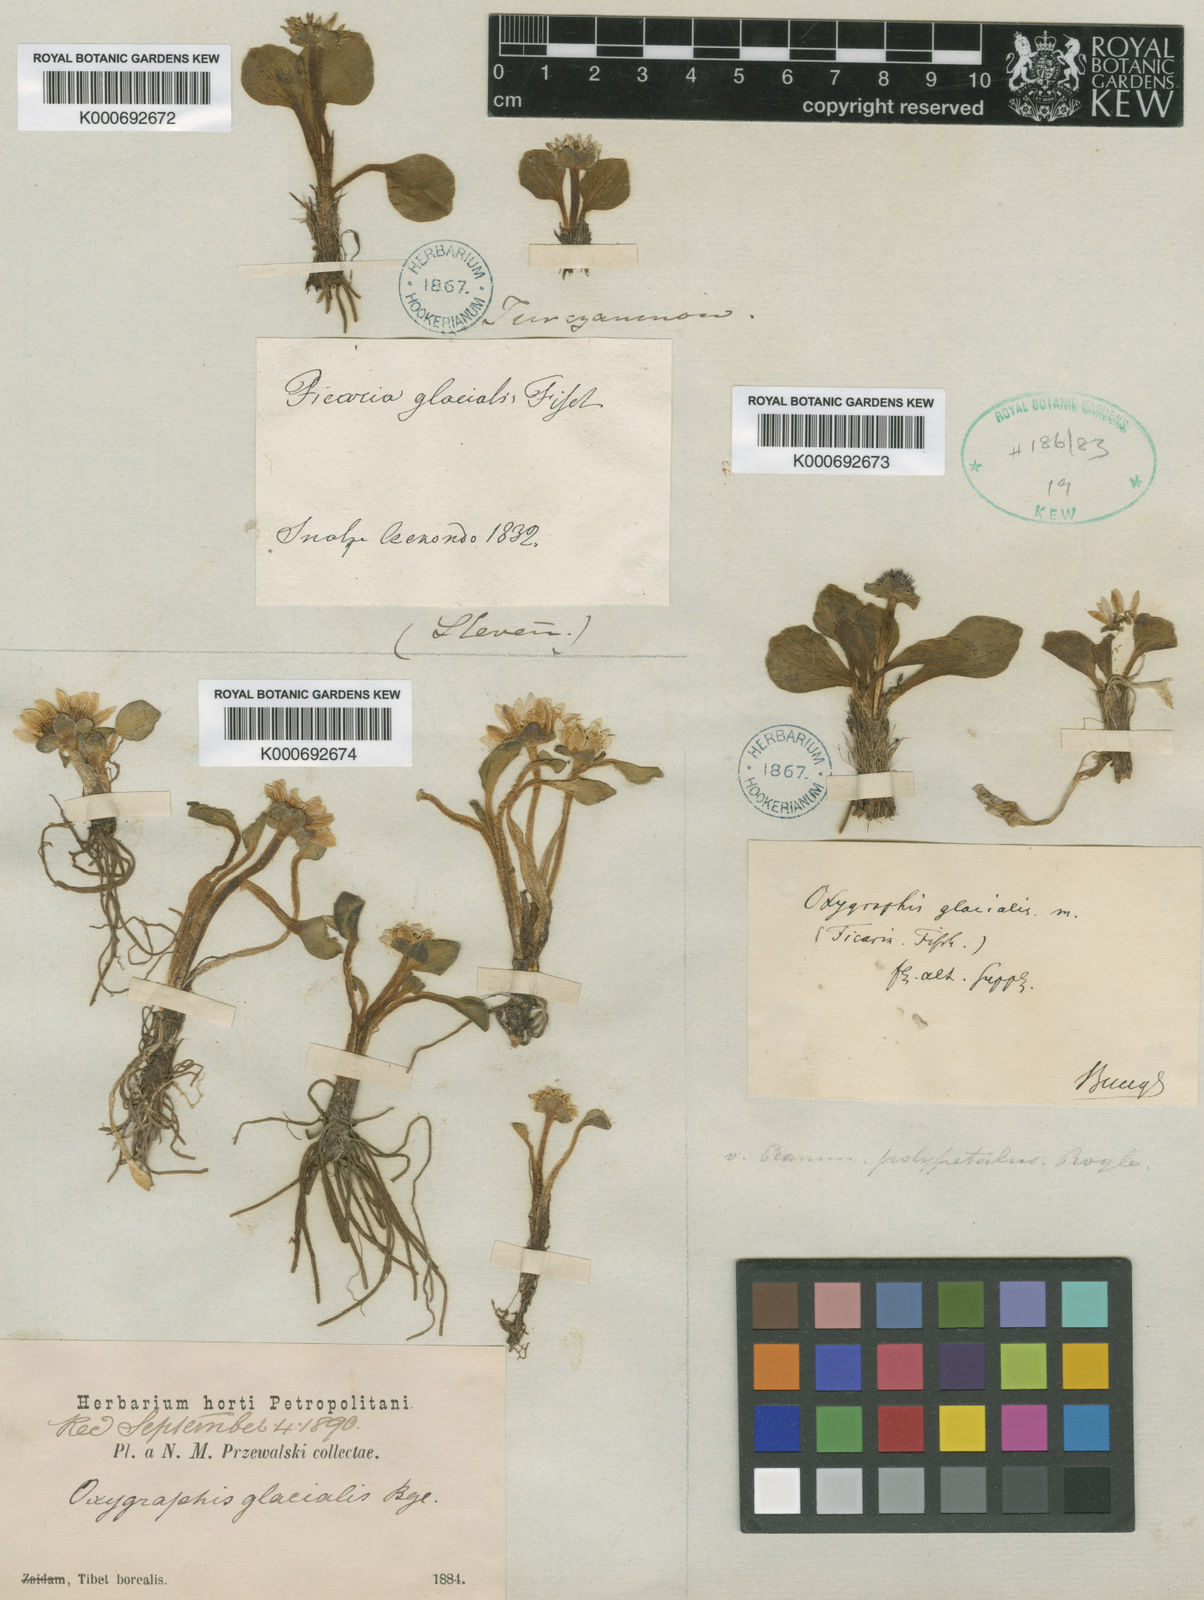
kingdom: Plantae
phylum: Tracheophyta
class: Magnoliopsida
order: Ranunculales
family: Ranunculaceae
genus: Ranunculus
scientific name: Ranunculus glacialis
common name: Glacier buttercup
